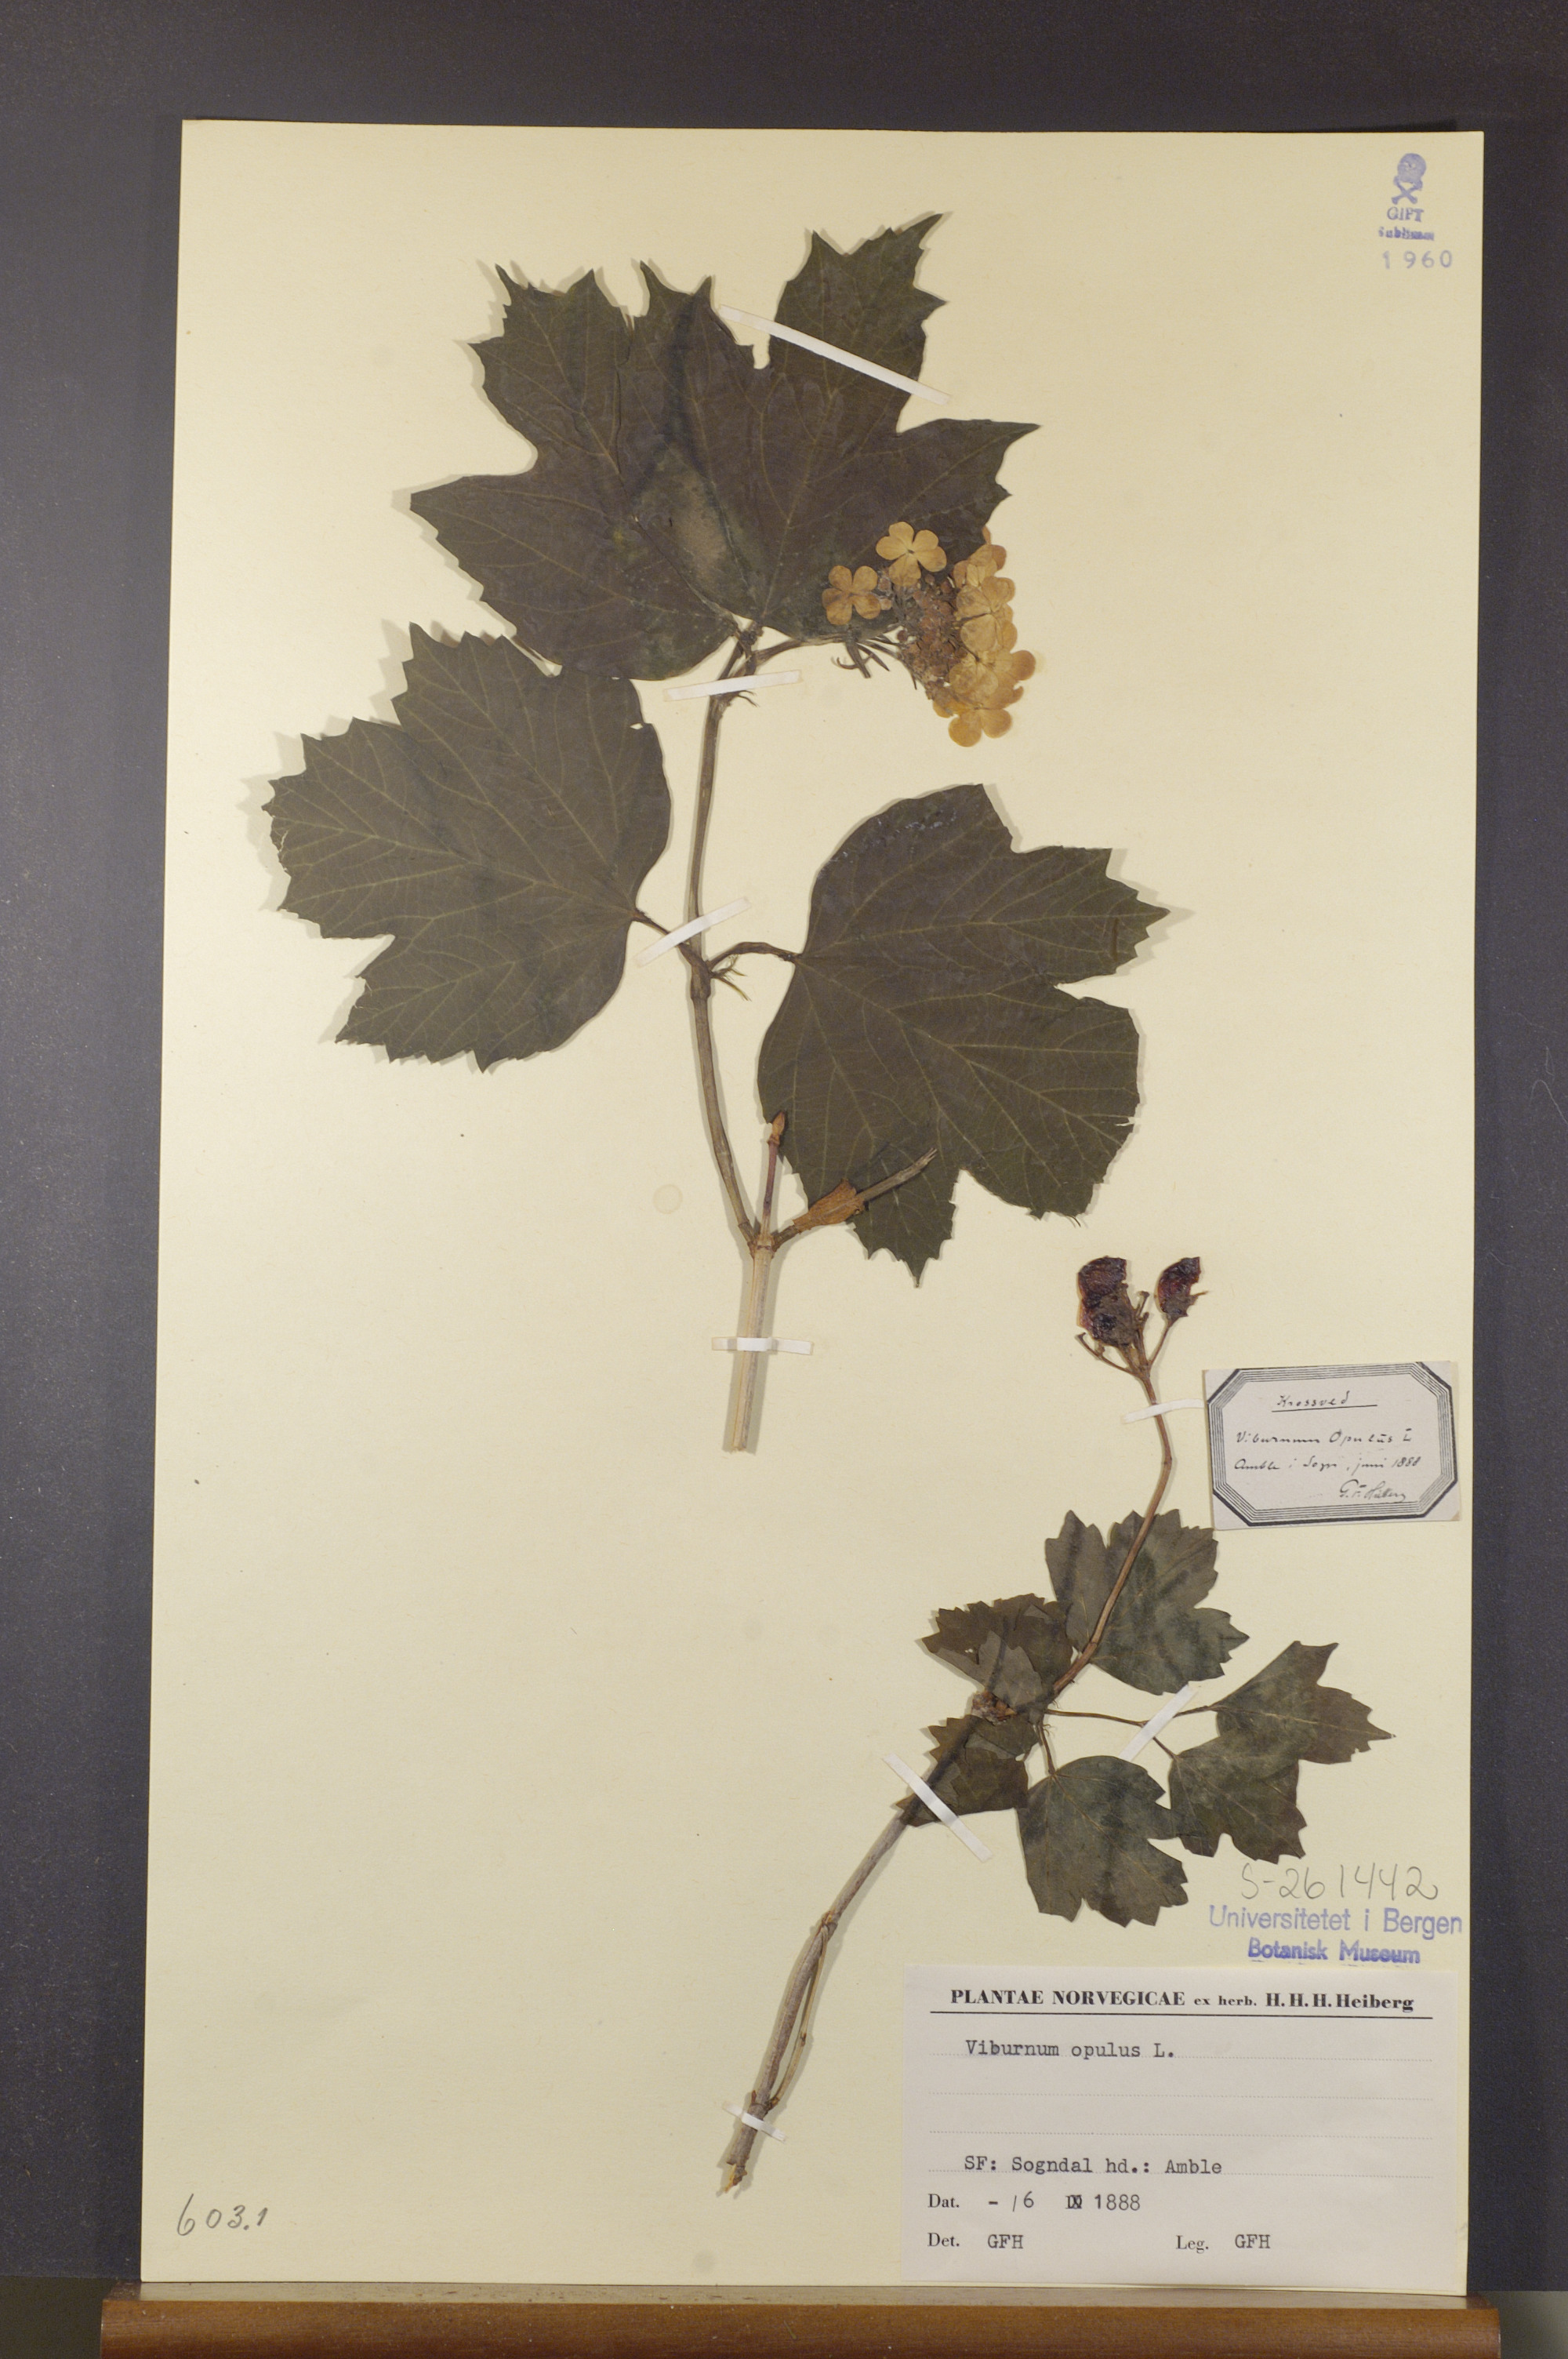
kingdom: Plantae
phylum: Tracheophyta
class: Magnoliopsida
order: Dipsacales
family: Viburnaceae
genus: Viburnum
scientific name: Viburnum opulus
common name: Guelder-rose
